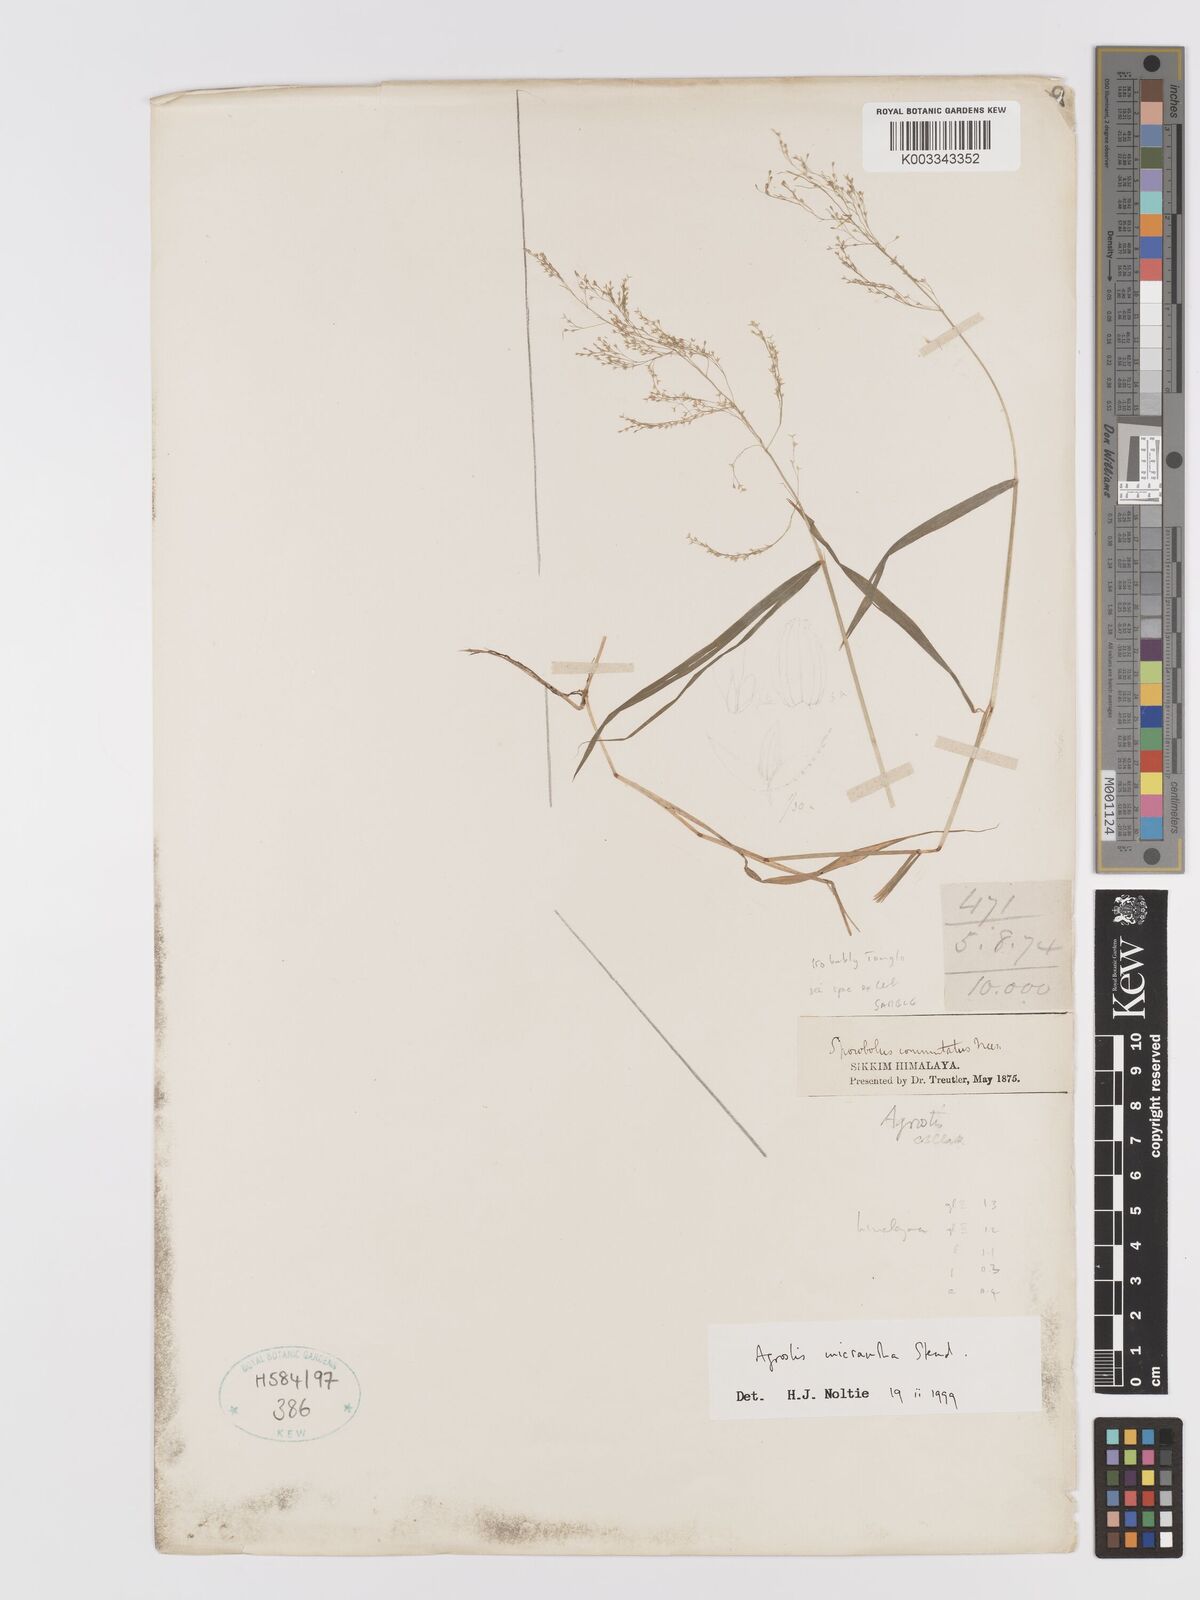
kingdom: Plantae
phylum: Tracheophyta
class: Liliopsida
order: Poales
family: Poaceae
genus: Agrostis
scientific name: Agrostis micrantha
